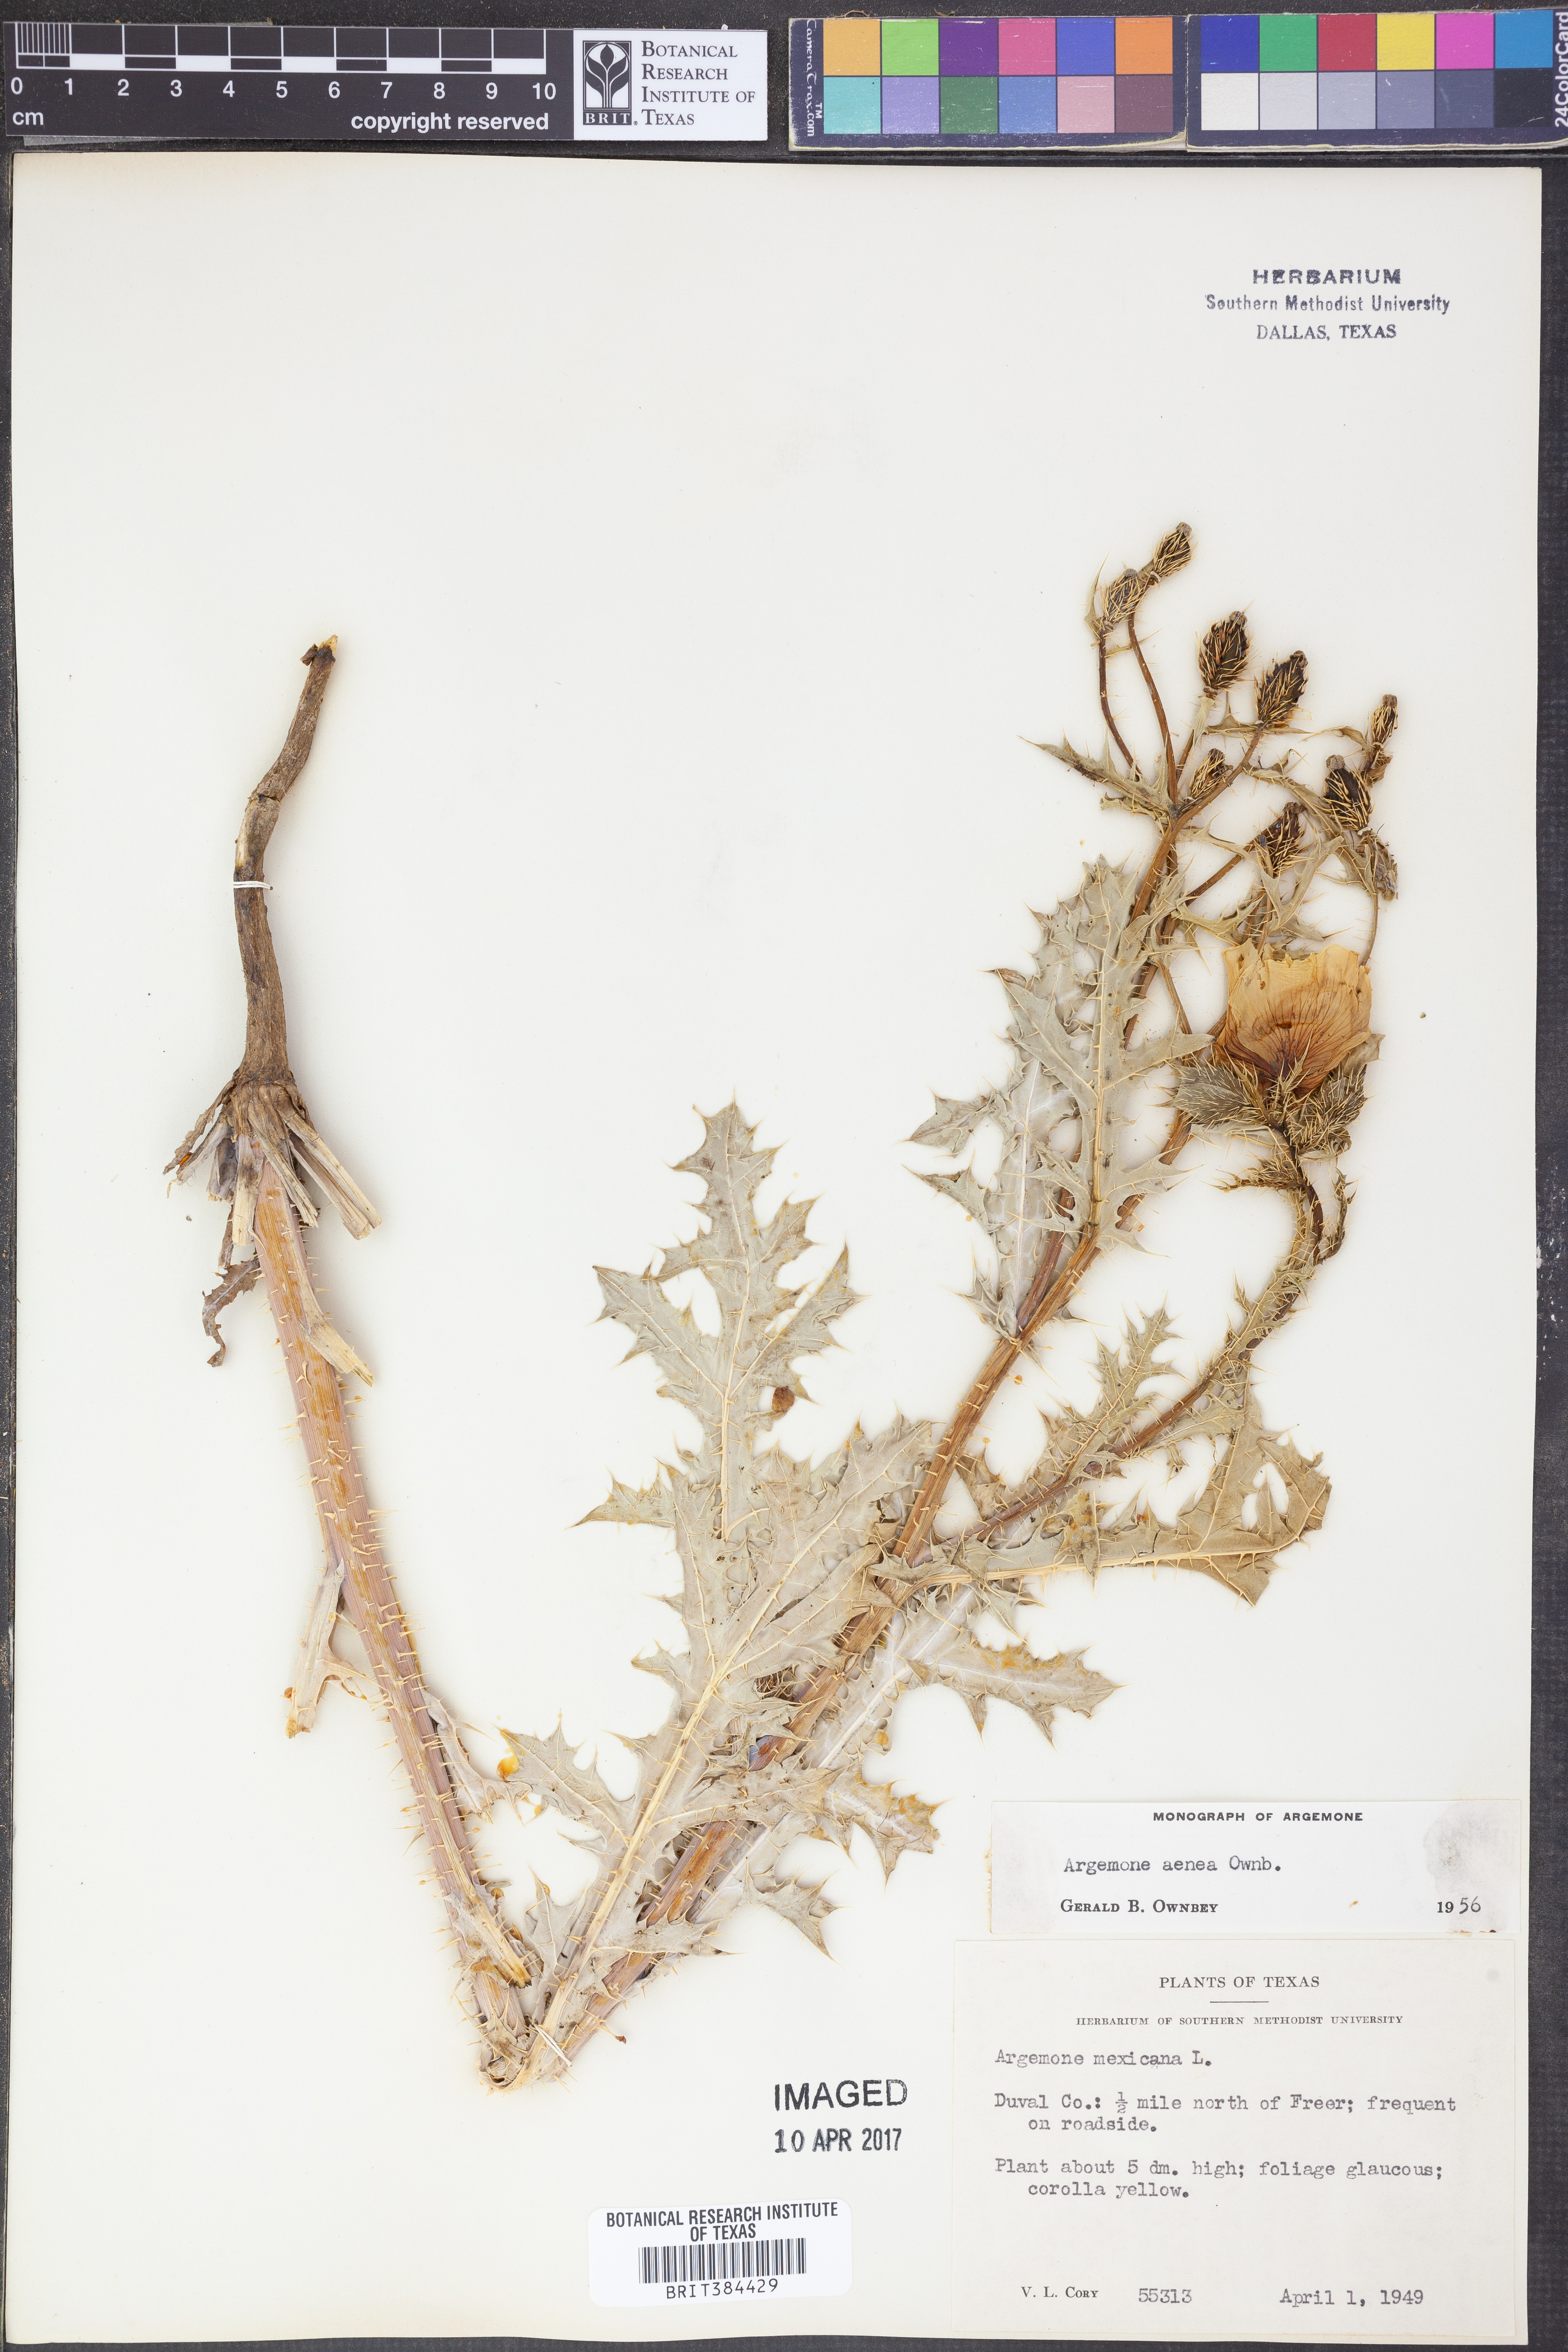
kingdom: Plantae
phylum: Tracheophyta
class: Magnoliopsida
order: Ranunculales
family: Papaveraceae
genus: Argemone
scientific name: Argemone aenea
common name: Golden prickly-poppy
